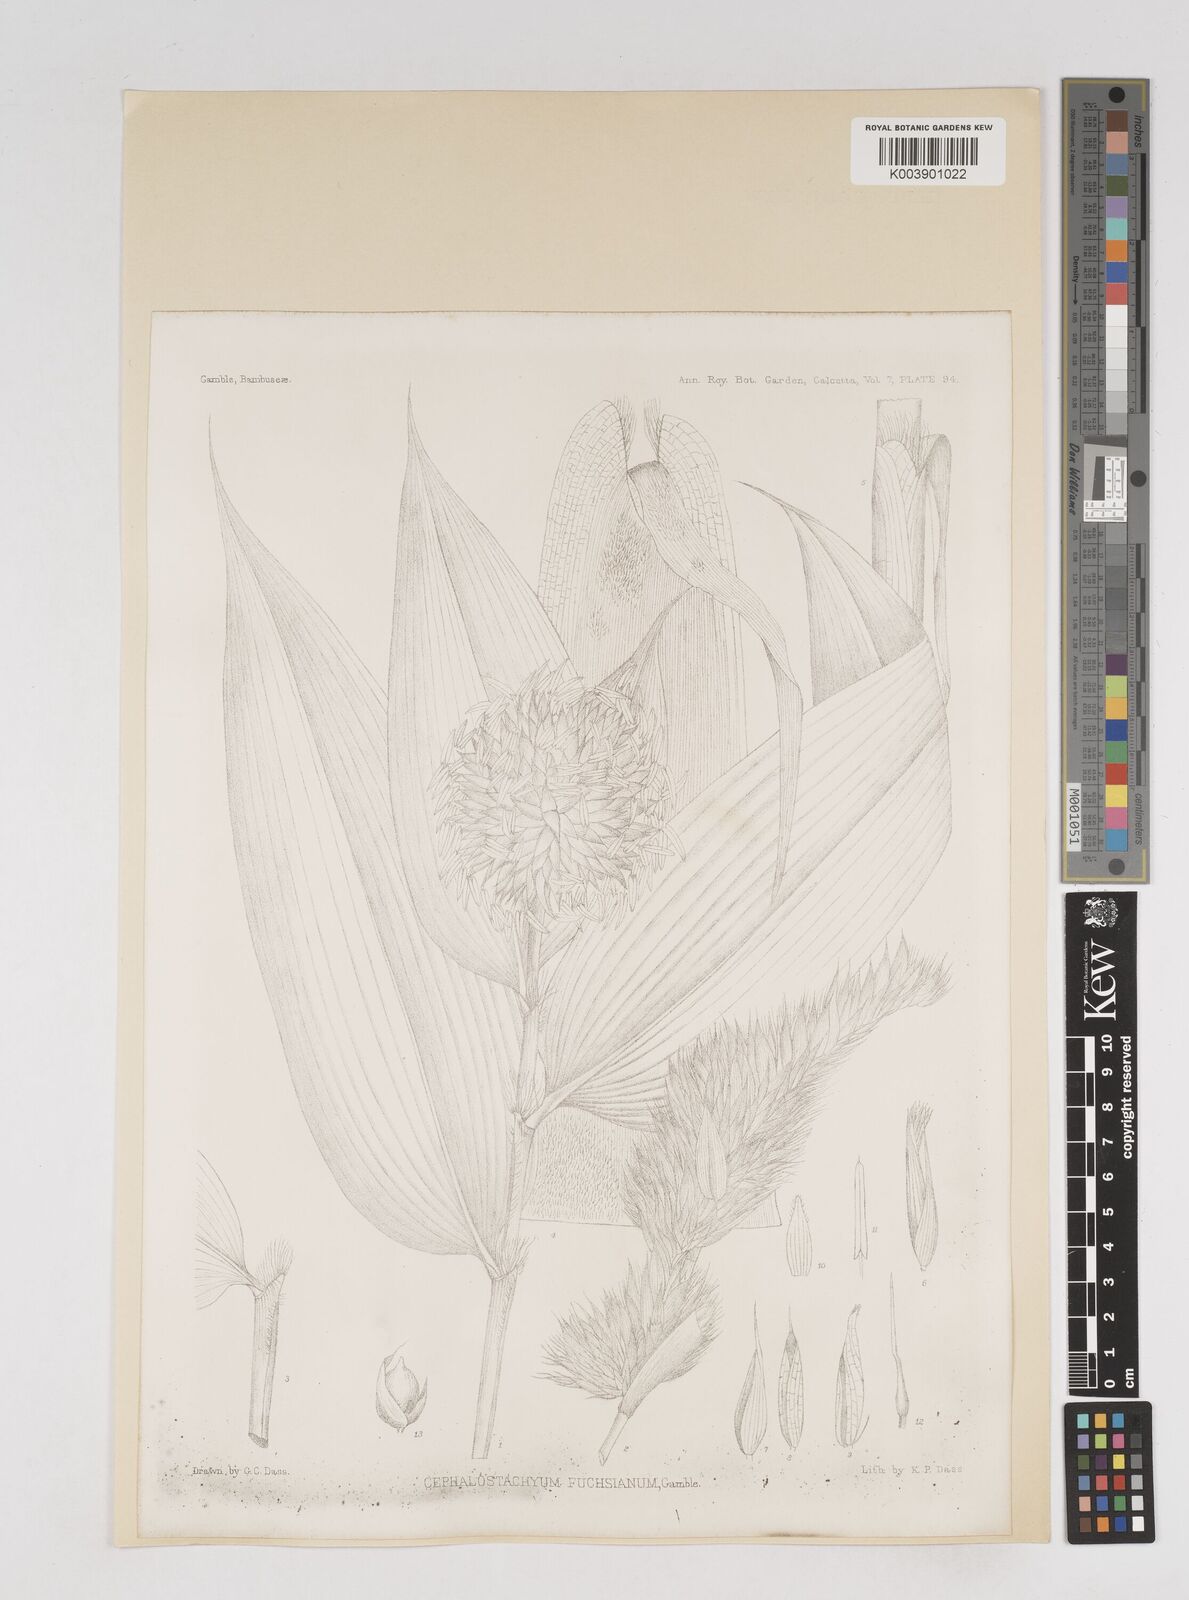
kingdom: Plantae
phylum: Tracheophyta
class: Liliopsida
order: Poales
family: Poaceae
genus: Cephalostachyum
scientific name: Cephalostachyum latifolium
